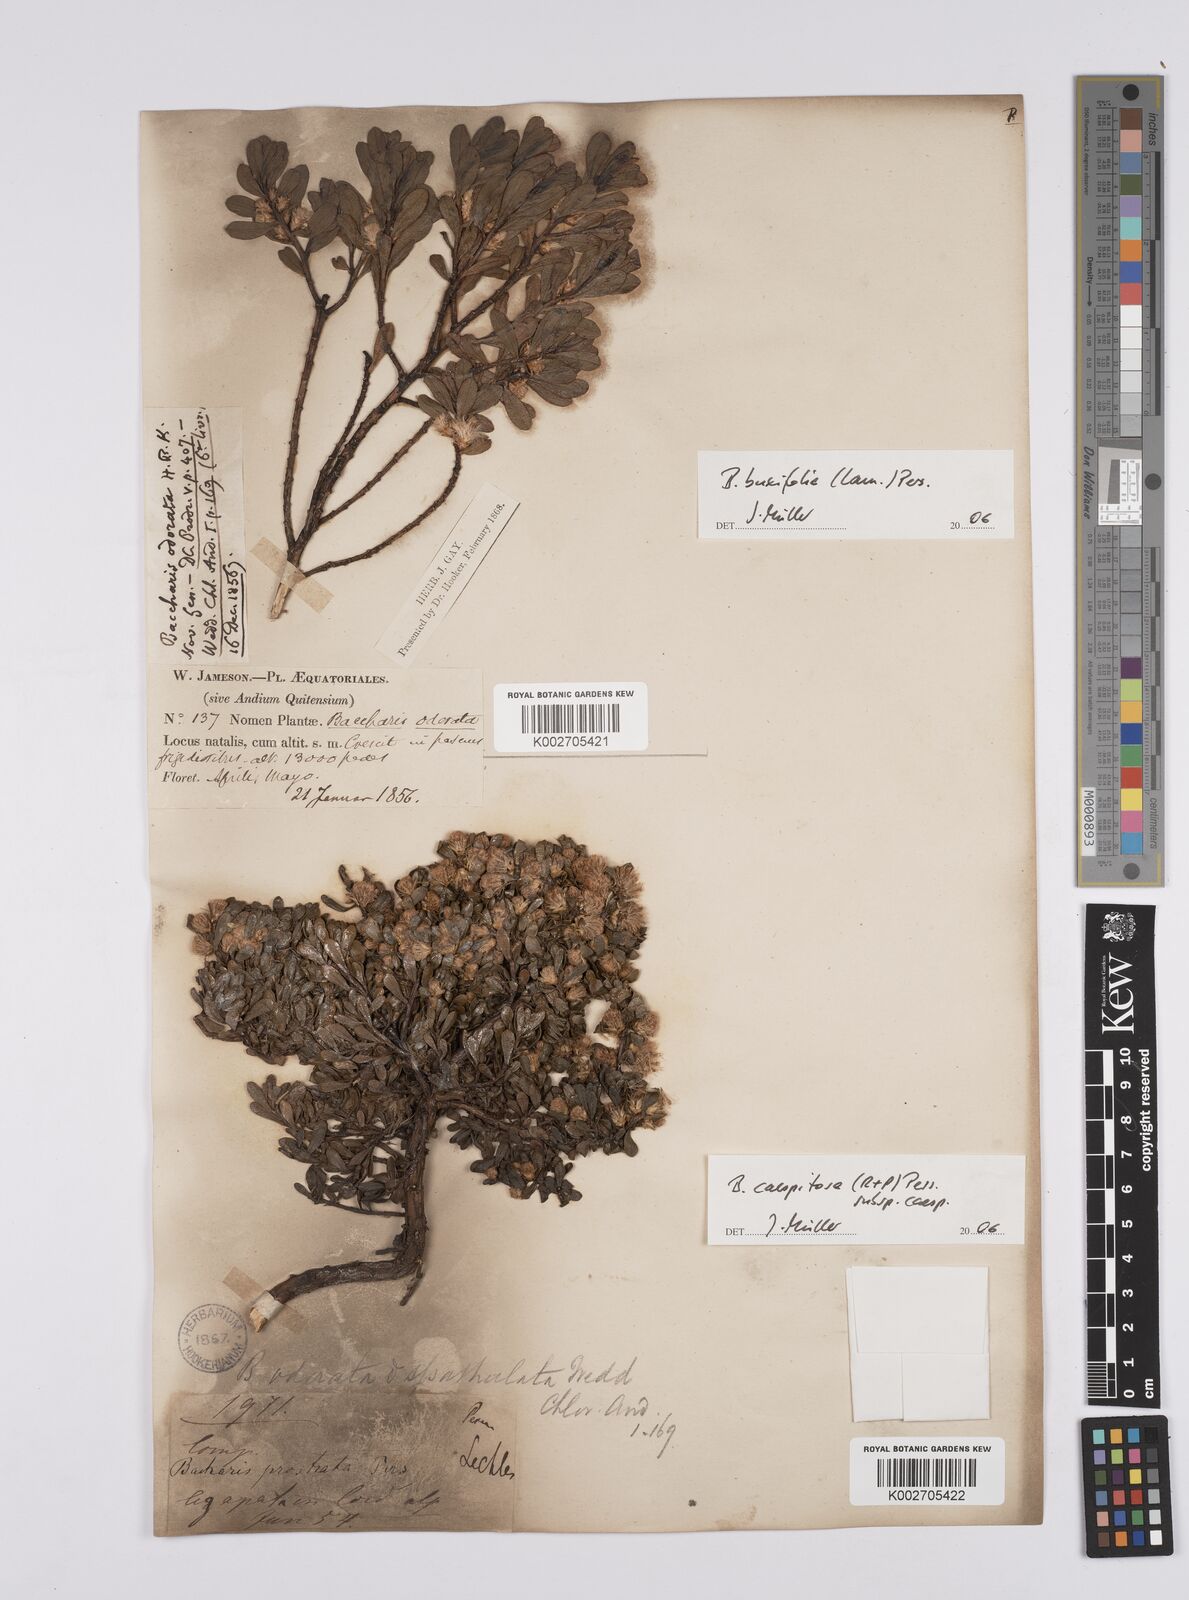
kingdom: Plantae
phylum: Tracheophyta
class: Magnoliopsida
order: Asterales
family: Asteraceae
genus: Baccharis
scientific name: Baccharis buxifolia
